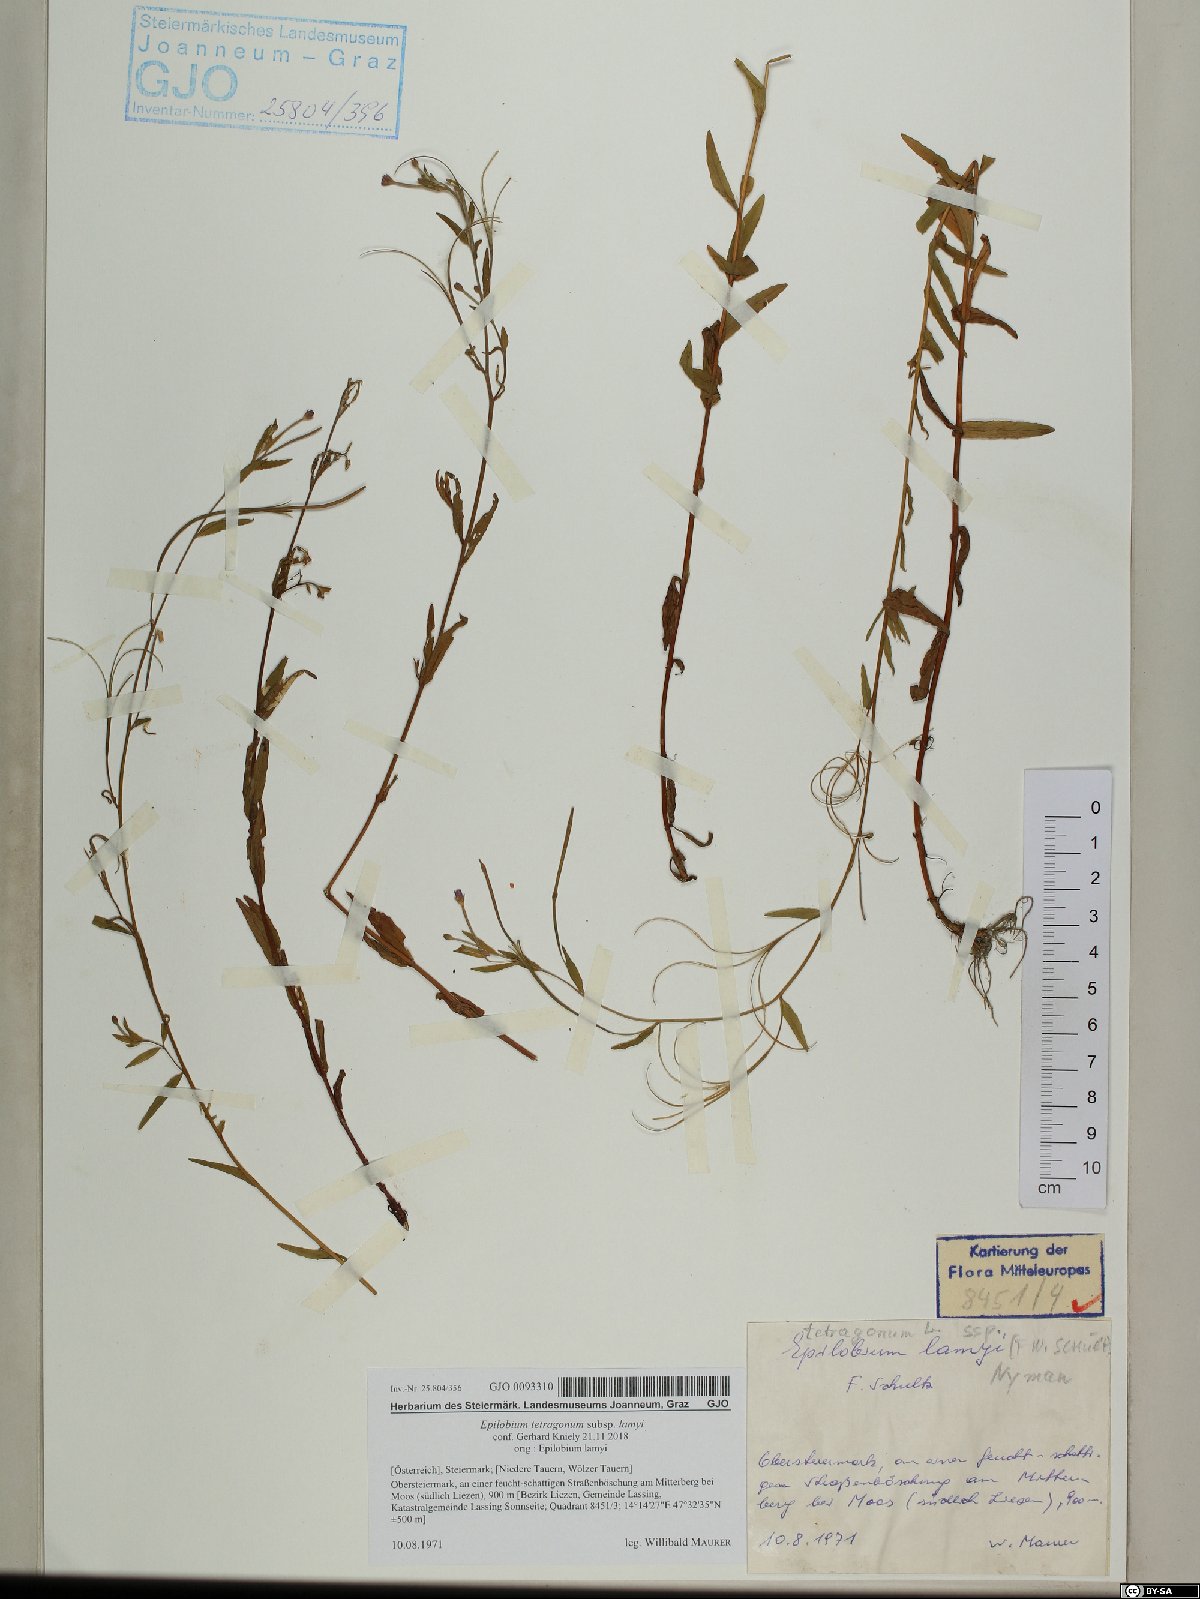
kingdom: Plantae
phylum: Tracheophyta
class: Magnoliopsida
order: Myrtales
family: Onagraceae
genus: Epilobium
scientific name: Epilobium lamyi
